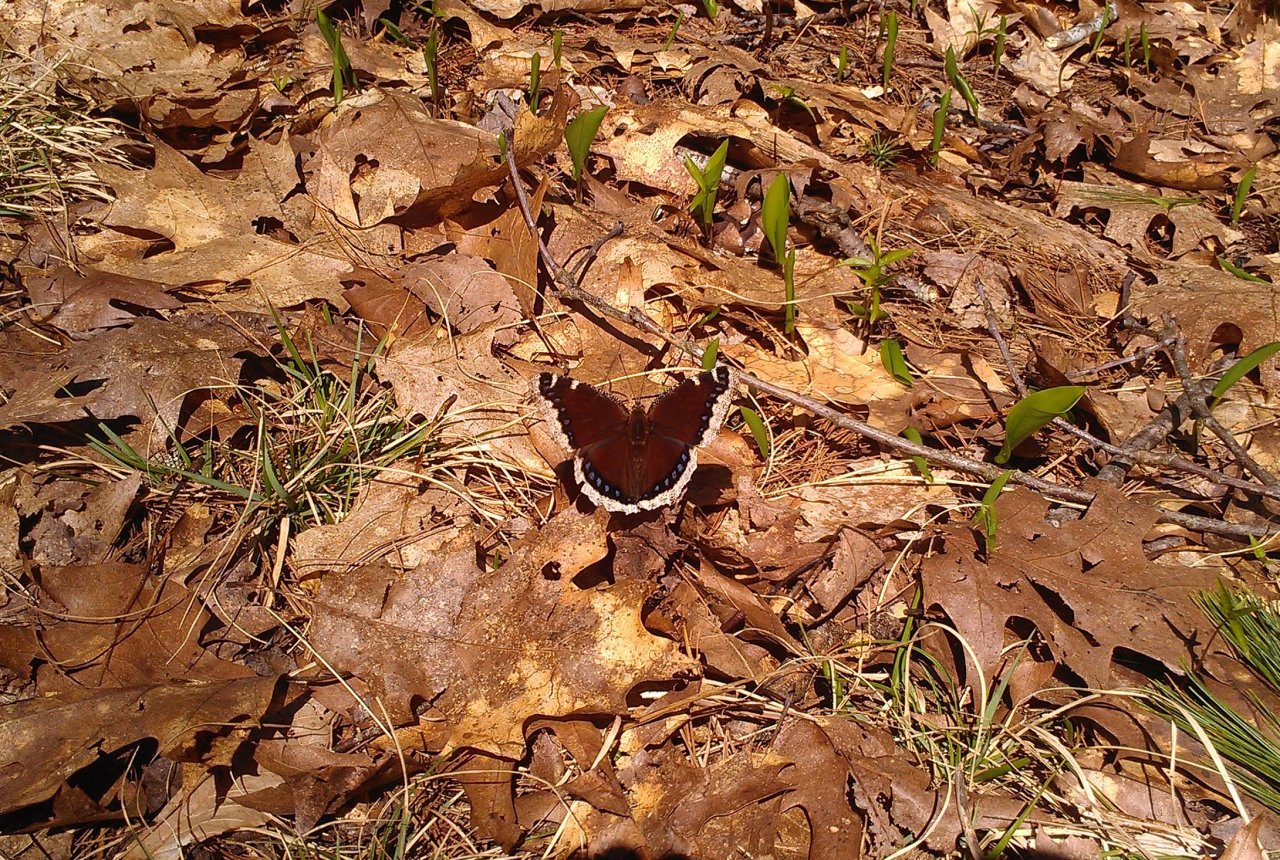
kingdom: Animalia
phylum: Arthropoda
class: Insecta
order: Lepidoptera
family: Nymphalidae
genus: Nymphalis
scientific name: Nymphalis antiopa
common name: Mourning Cloak
